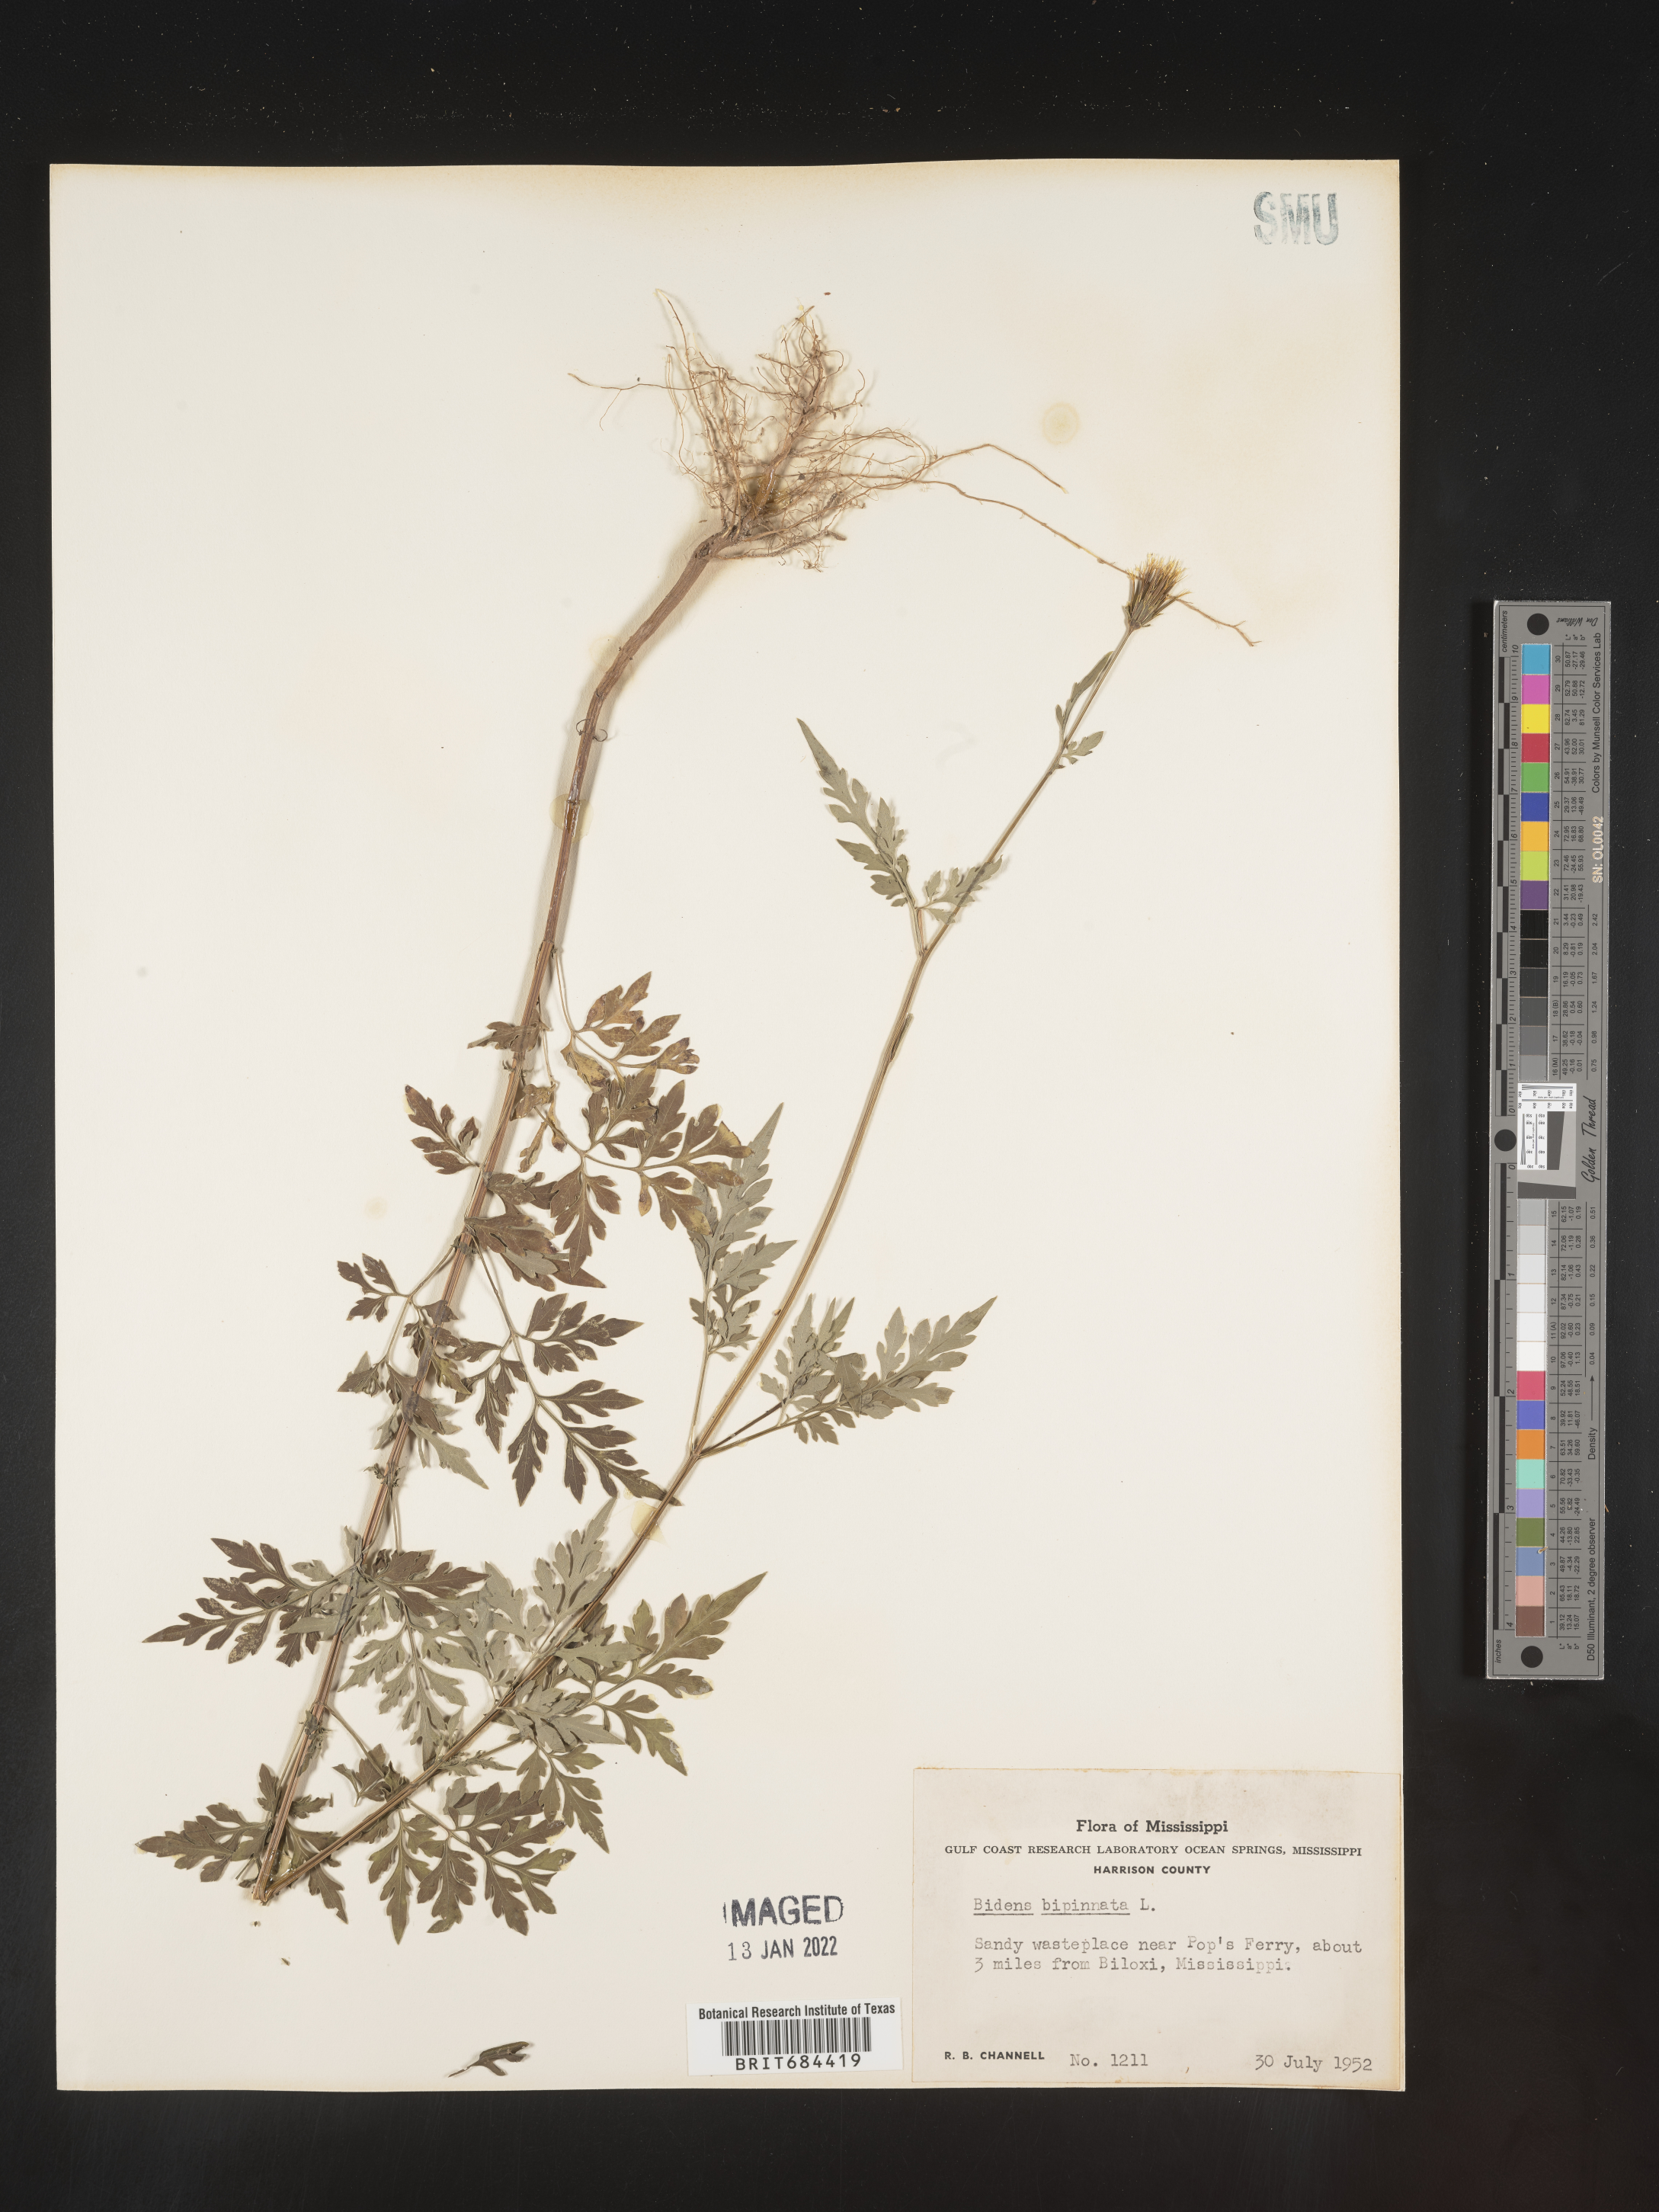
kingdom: Plantae
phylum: Tracheophyta
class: Magnoliopsida
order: Asterales
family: Asteraceae
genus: Bidens
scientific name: Bidens bipinnata
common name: Spanish-needles
